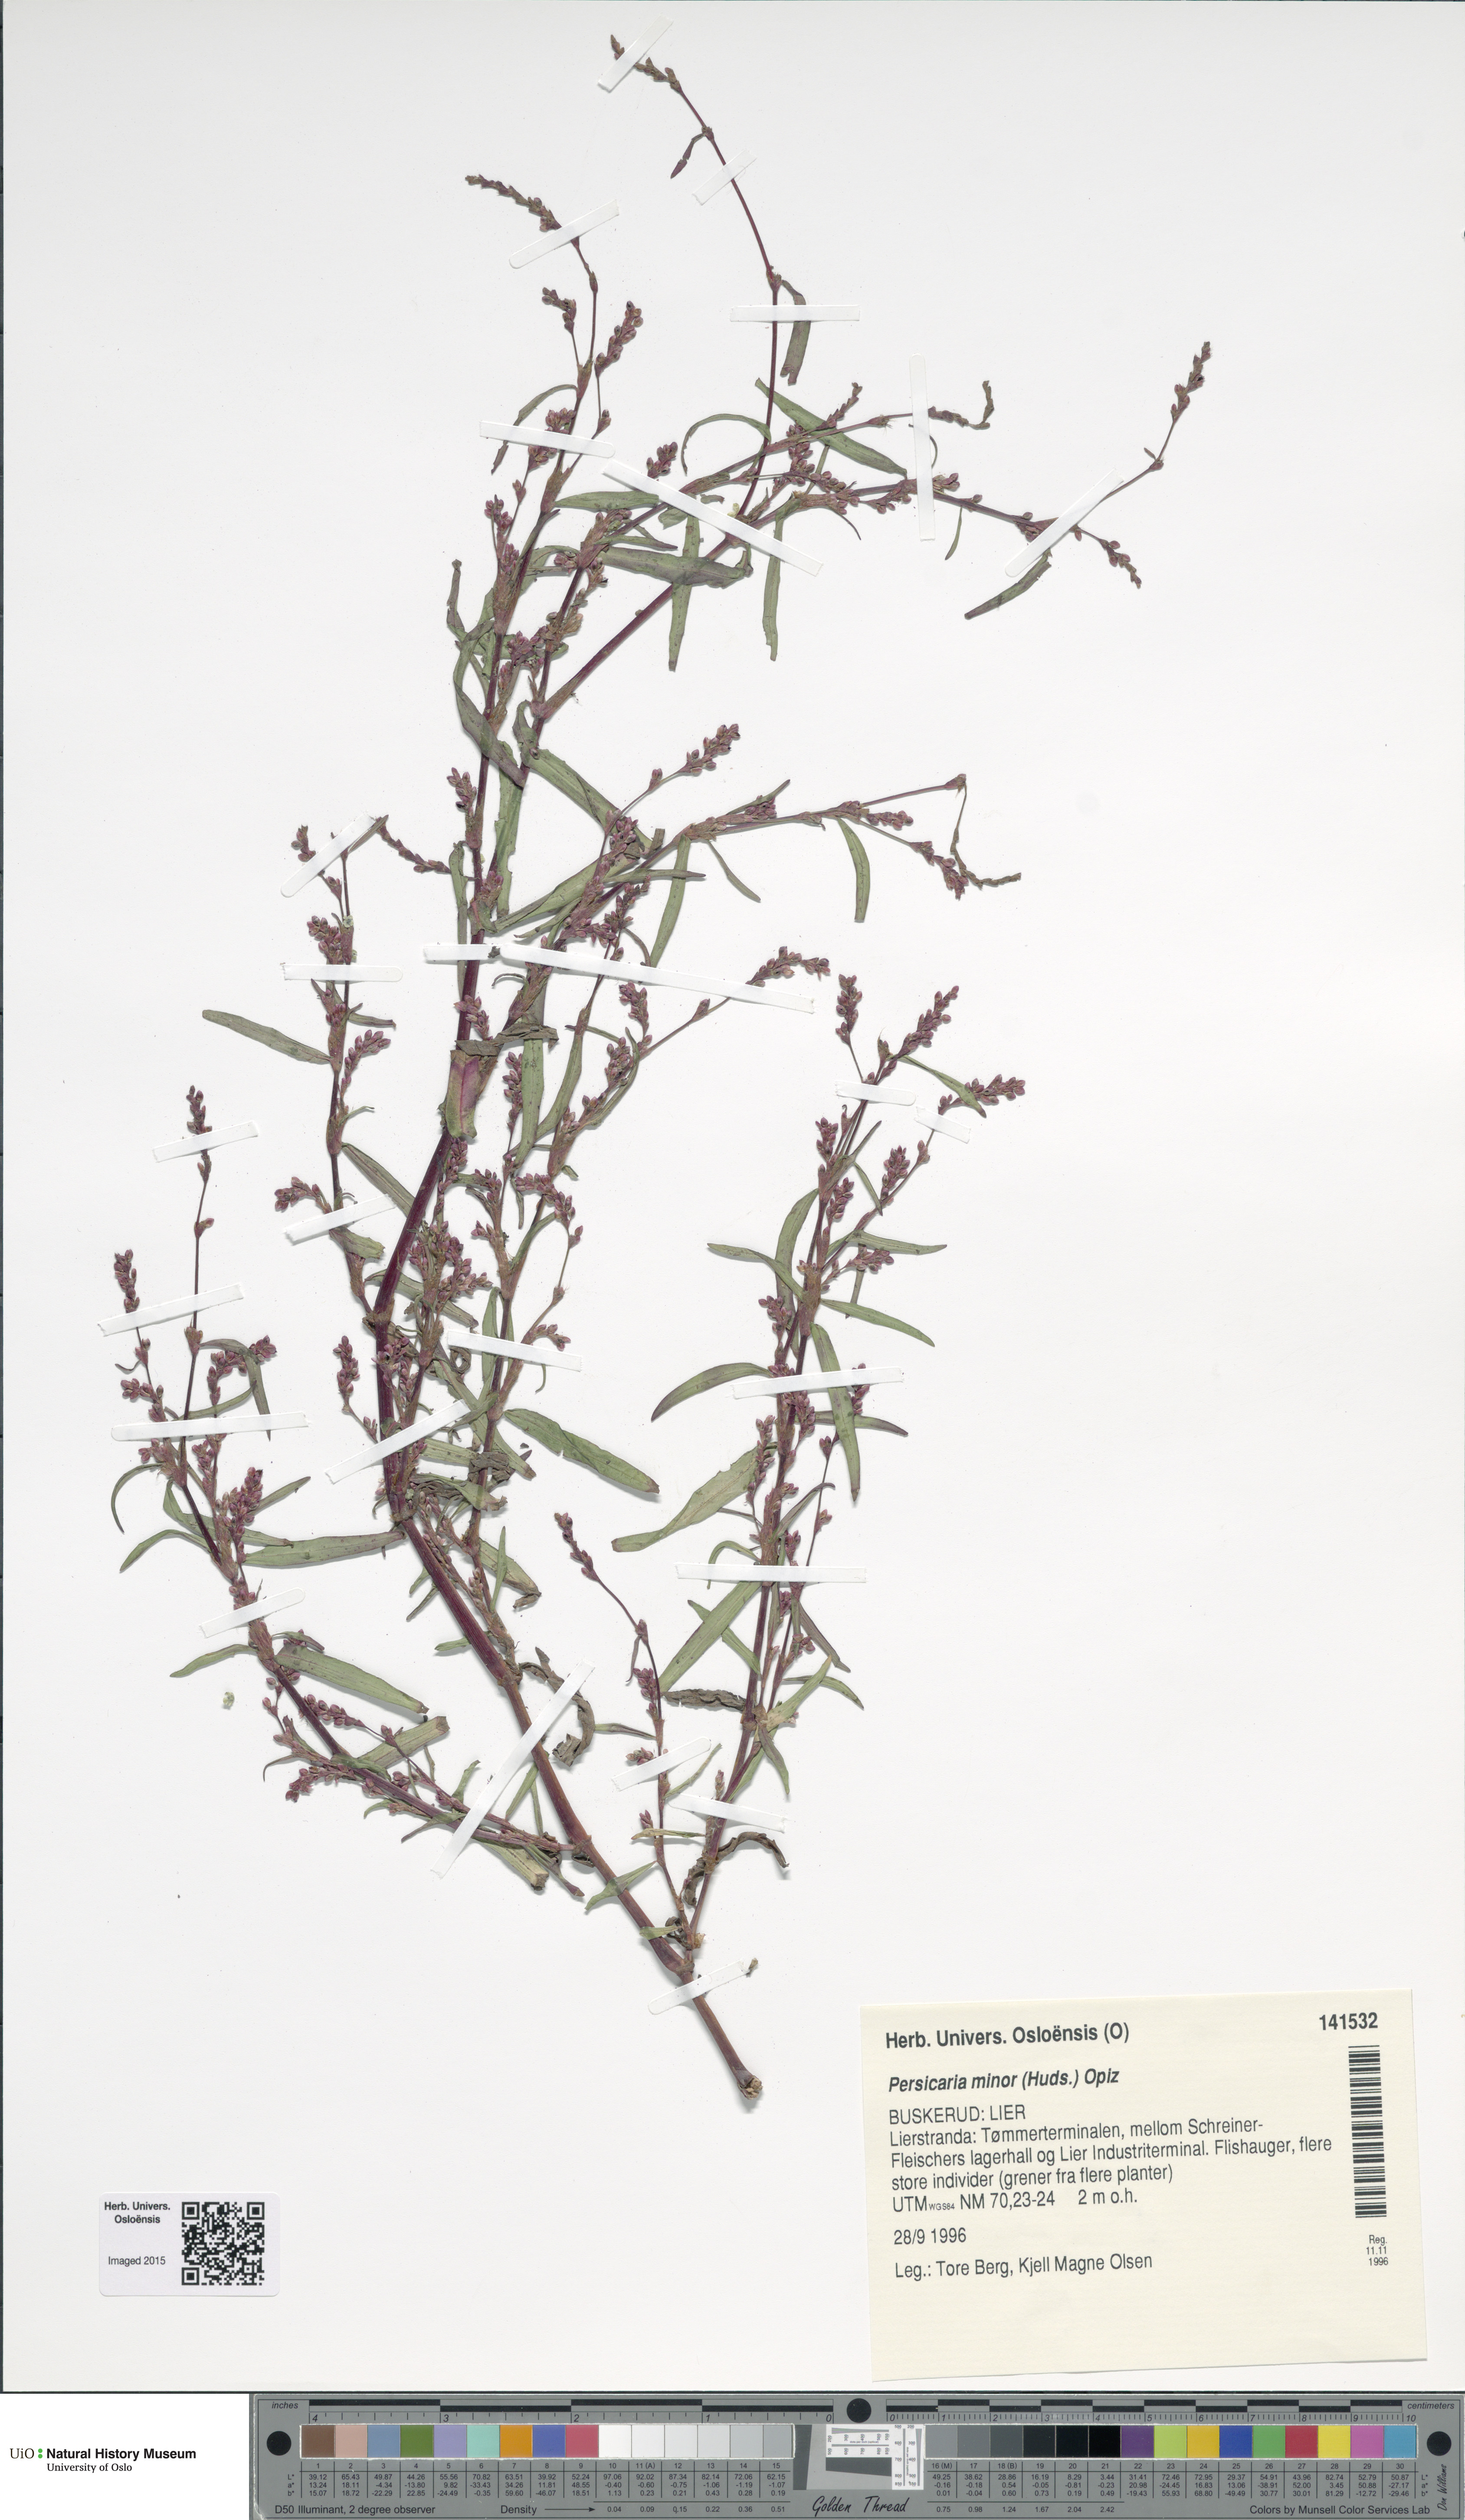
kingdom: Plantae
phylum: Tracheophyta
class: Magnoliopsida
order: Caryophyllales
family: Polygonaceae
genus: Persicaria
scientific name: Persicaria minor
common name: Small water-pepper
